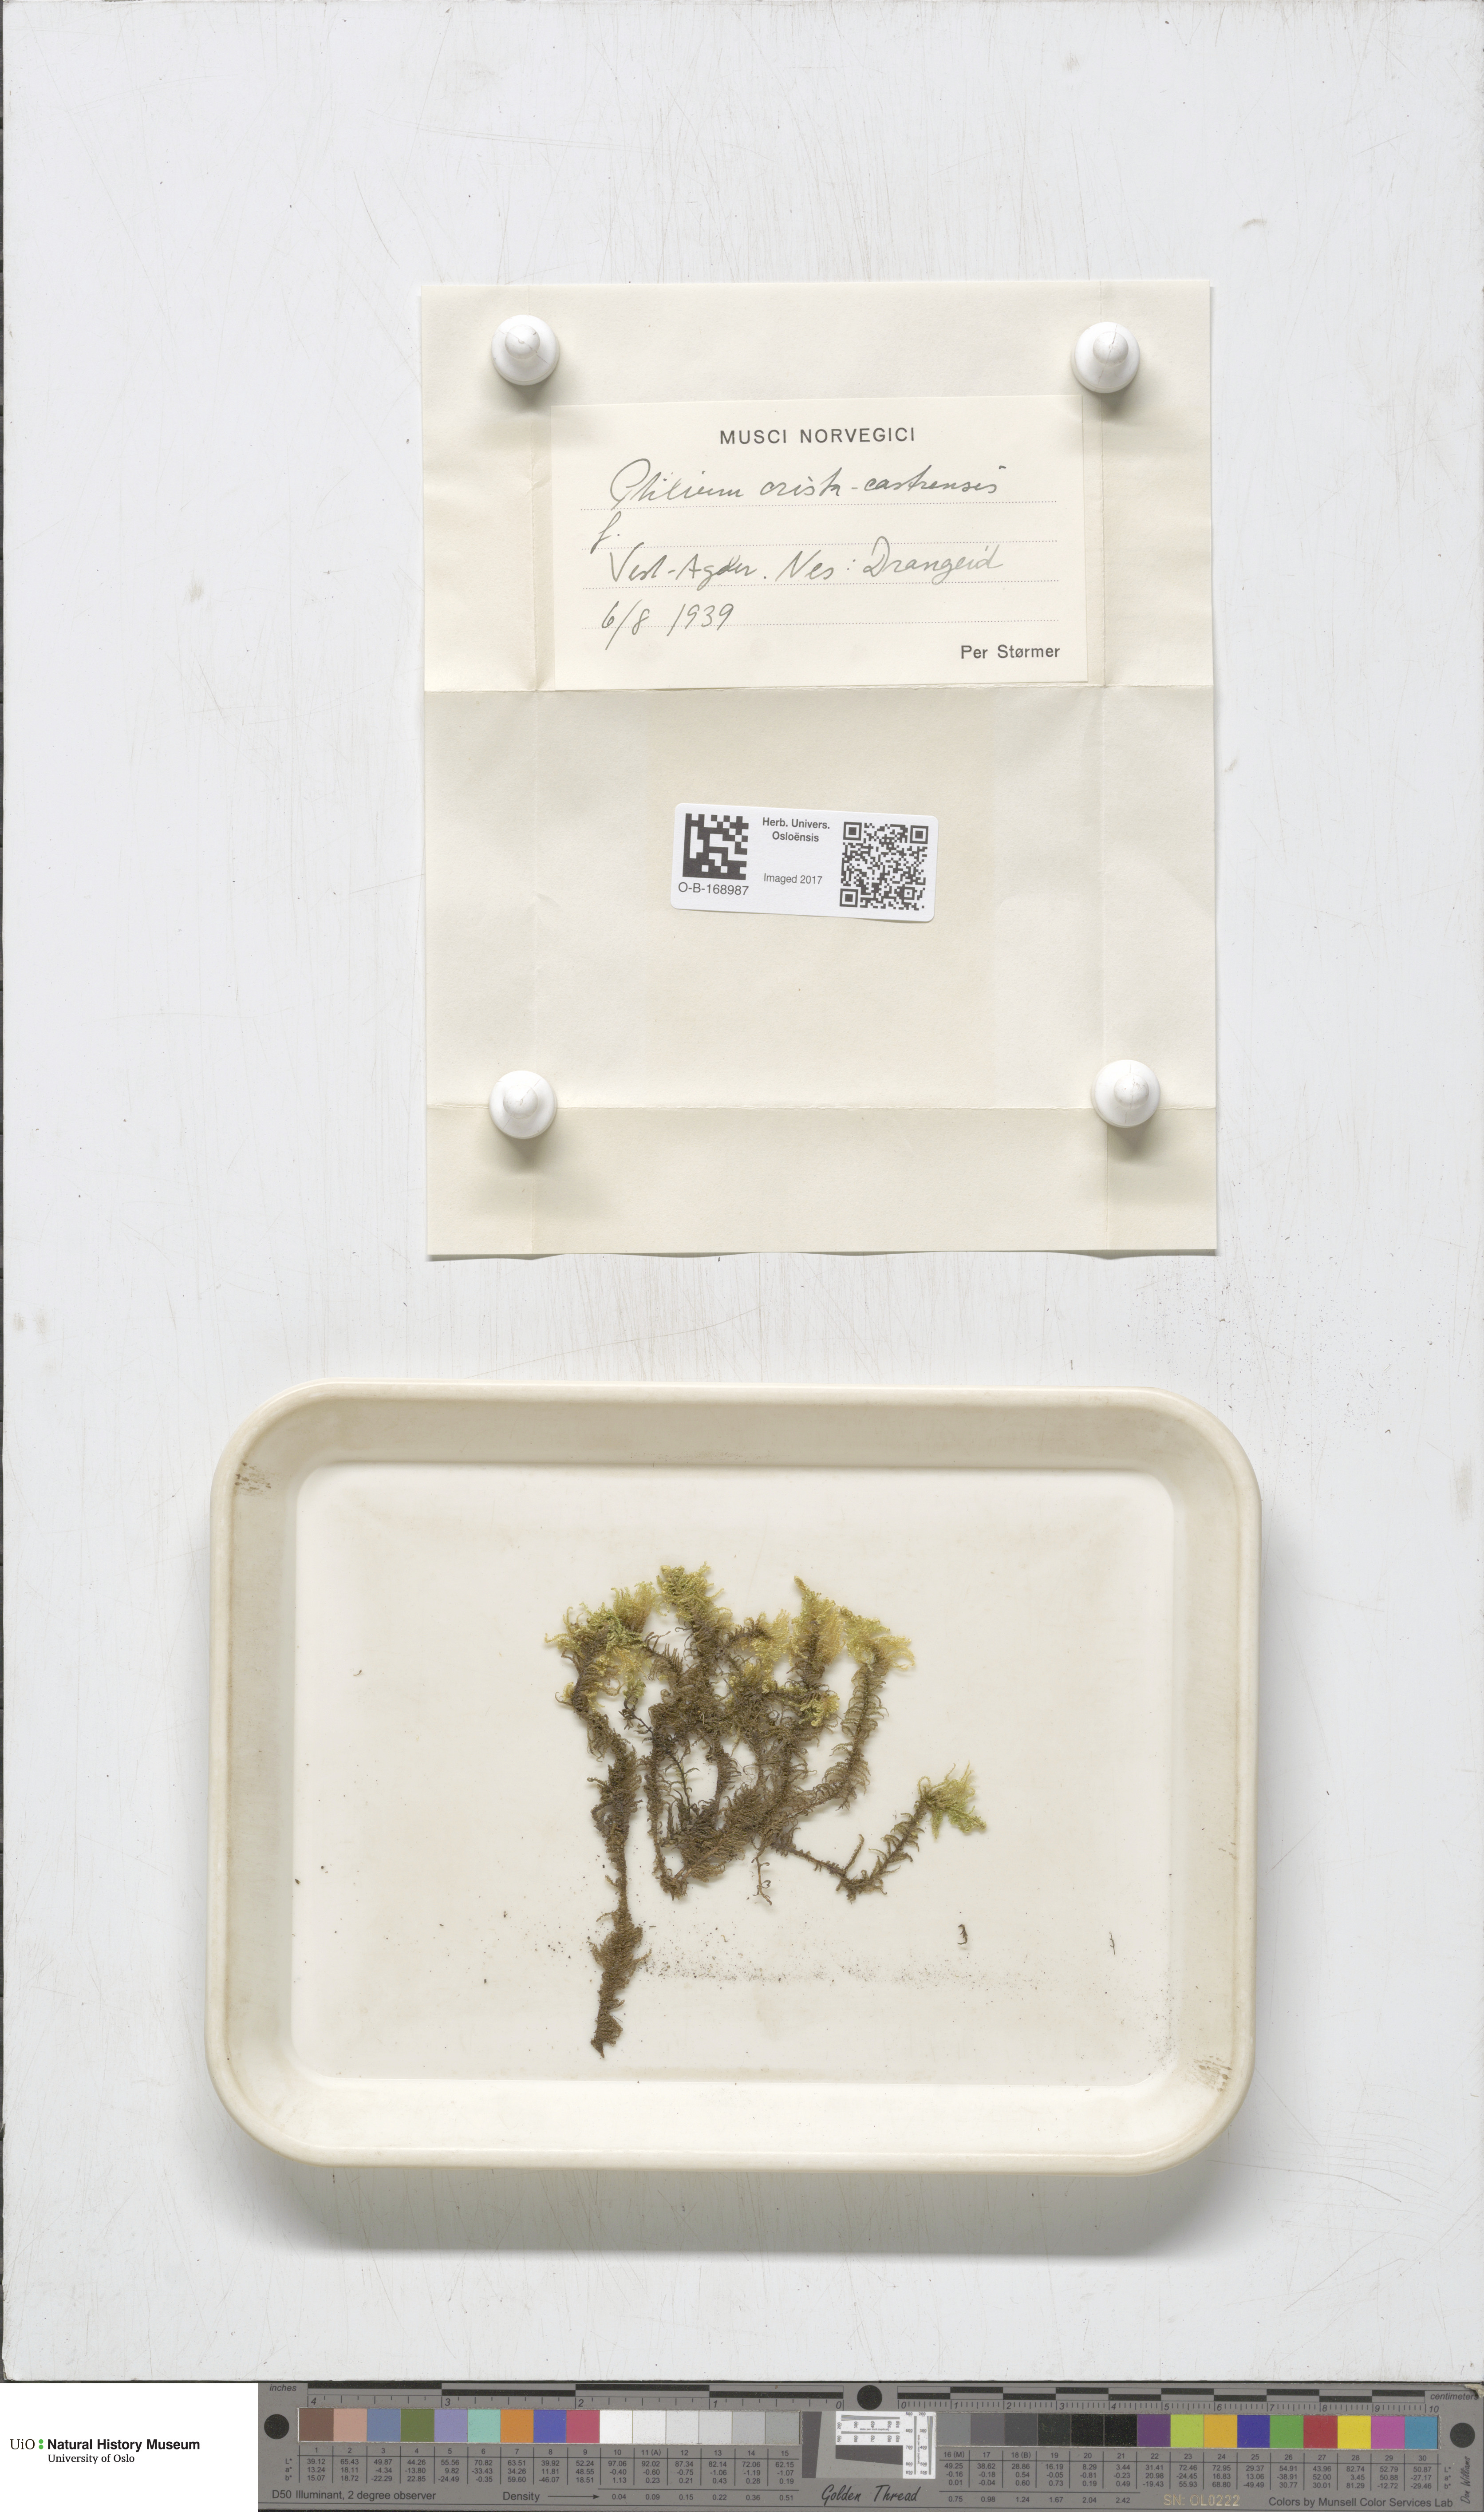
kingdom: Plantae
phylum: Bryophyta
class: Bryopsida
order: Hypnales
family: Pylaisiaceae
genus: Ptilium
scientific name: Ptilium crista-castrensis
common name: Knight's plume moss
